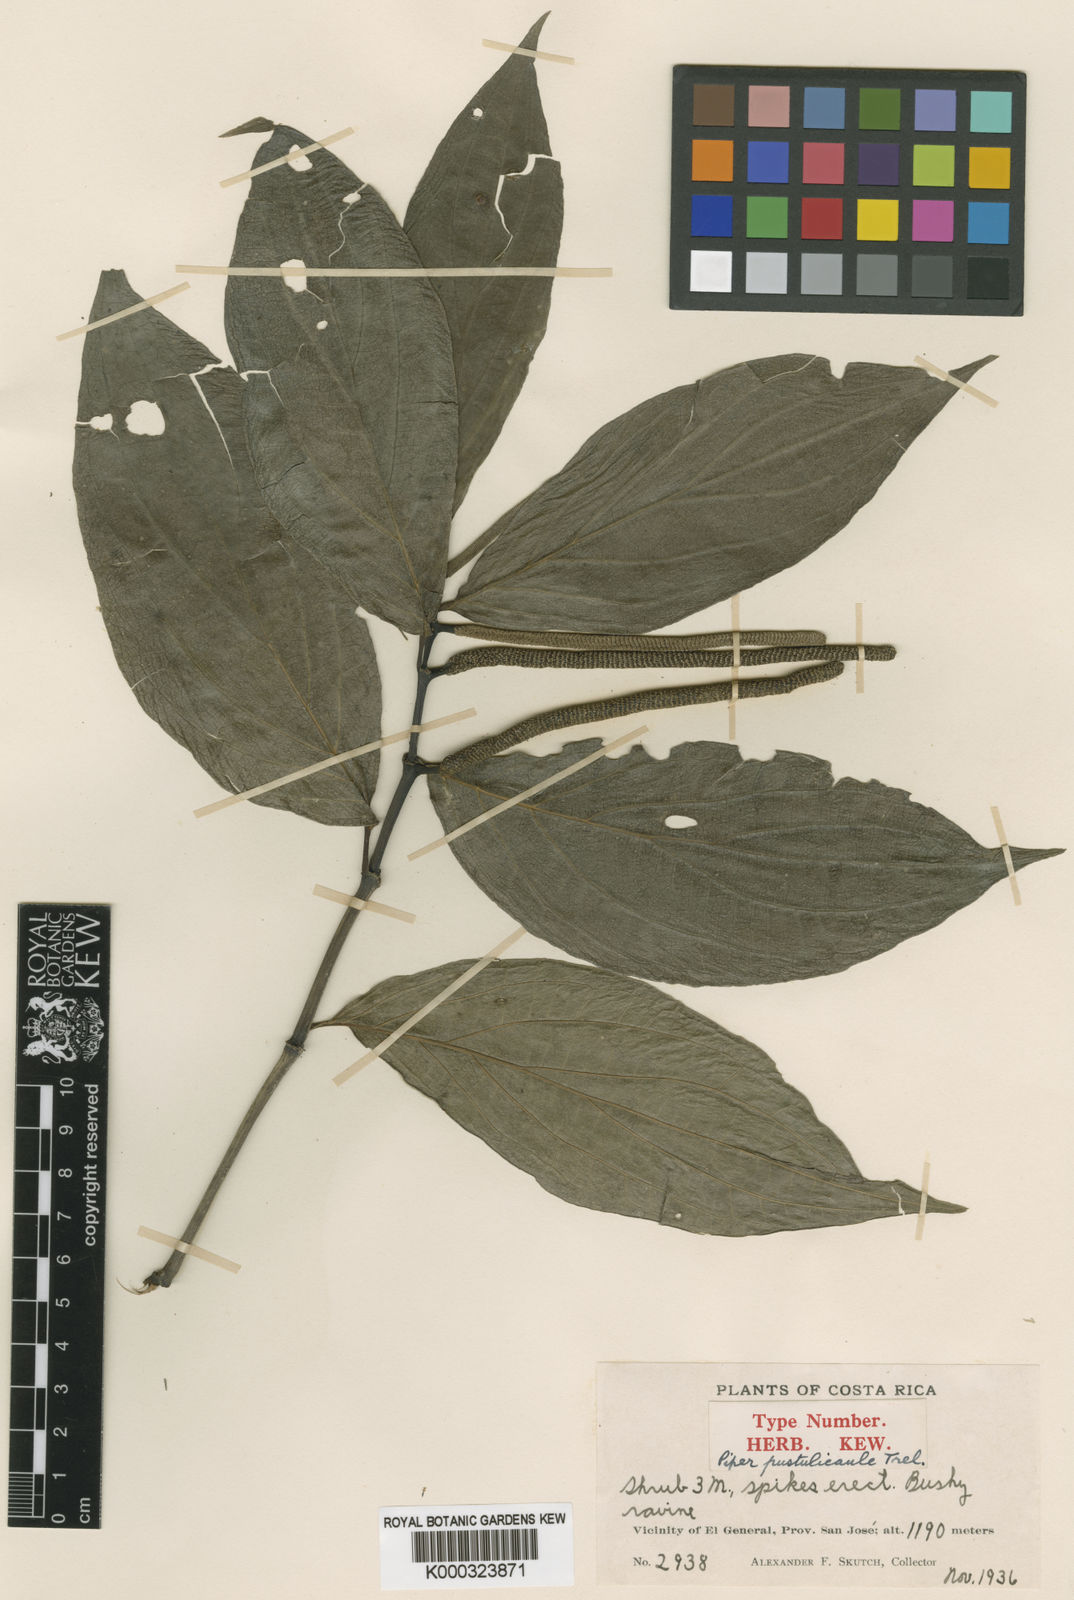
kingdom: Plantae
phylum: Tracheophyta
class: Magnoliopsida
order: Piperales
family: Piperaceae
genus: Piper
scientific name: Piper umbricola
